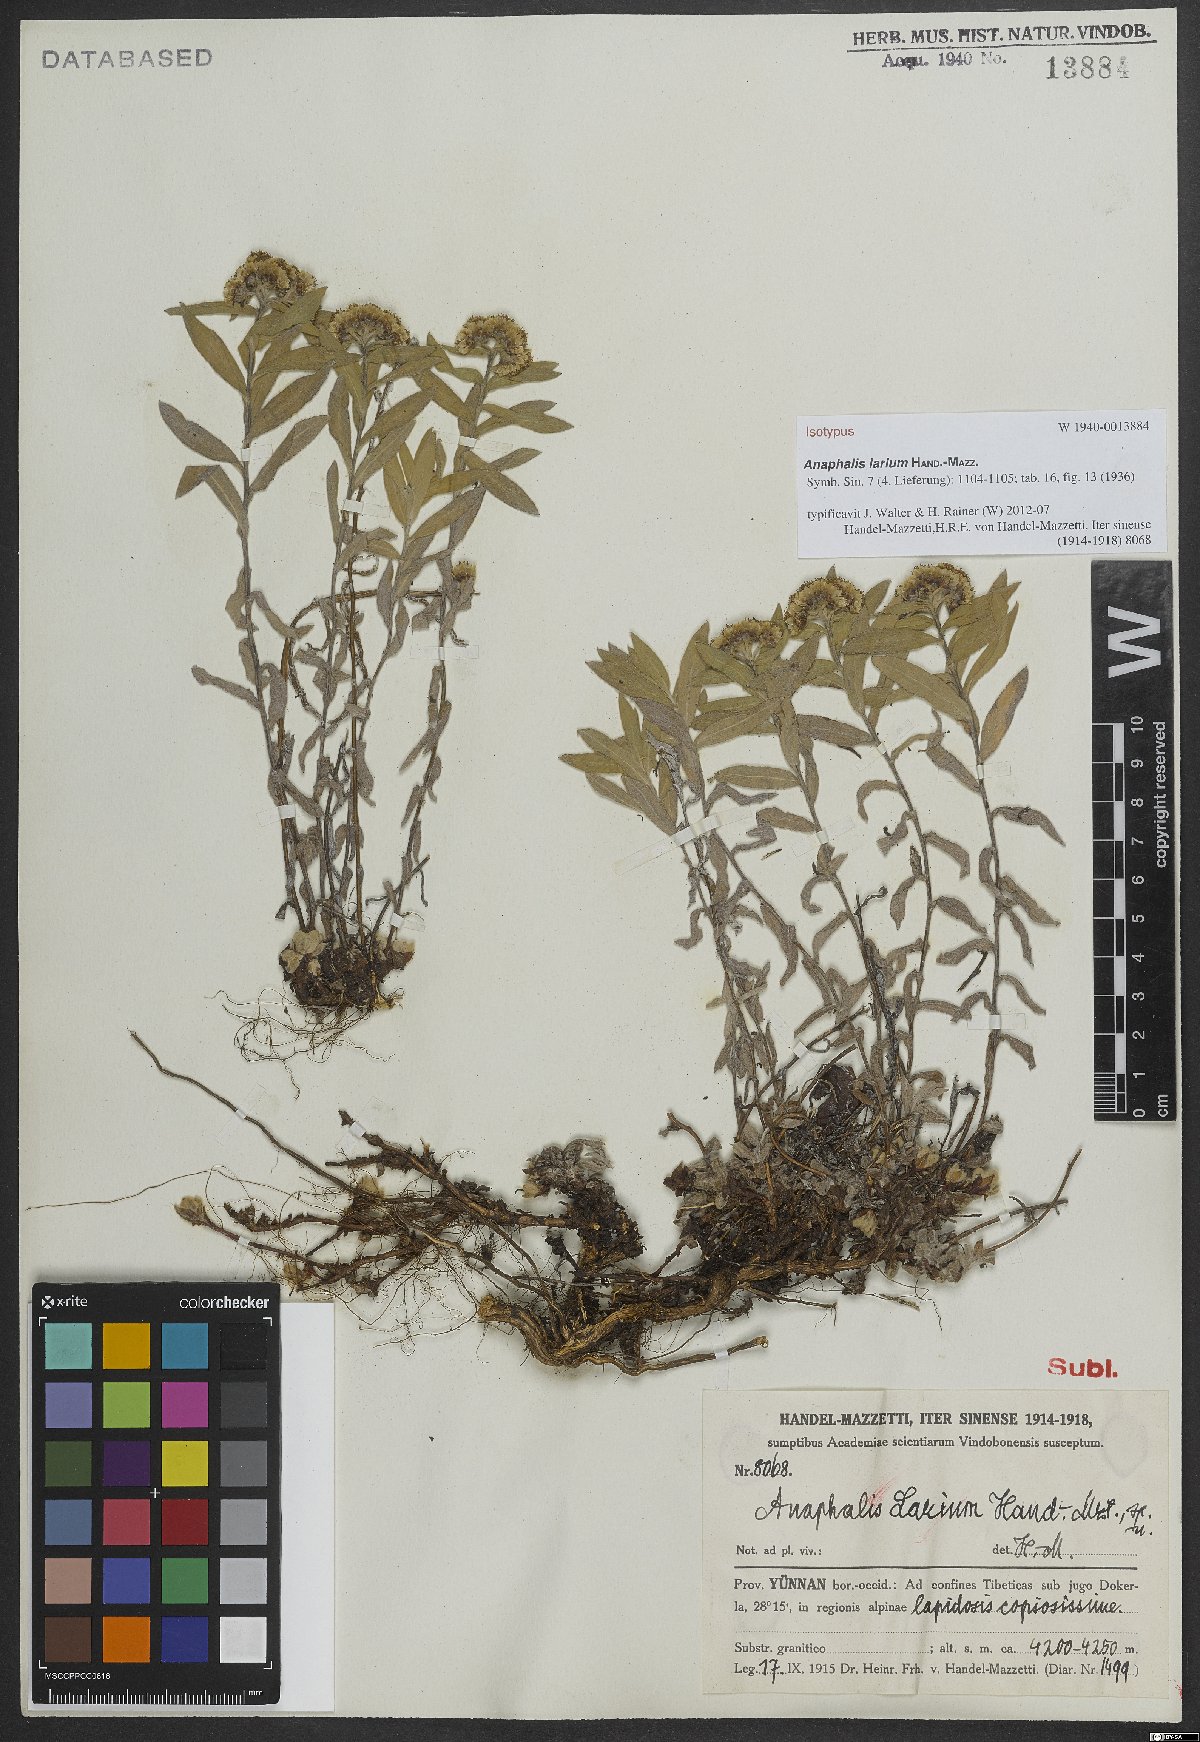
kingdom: Plantae
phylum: Tracheophyta
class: Magnoliopsida
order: Asterales
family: Asteraceae
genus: Anaphalis
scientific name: Anaphalis larium
